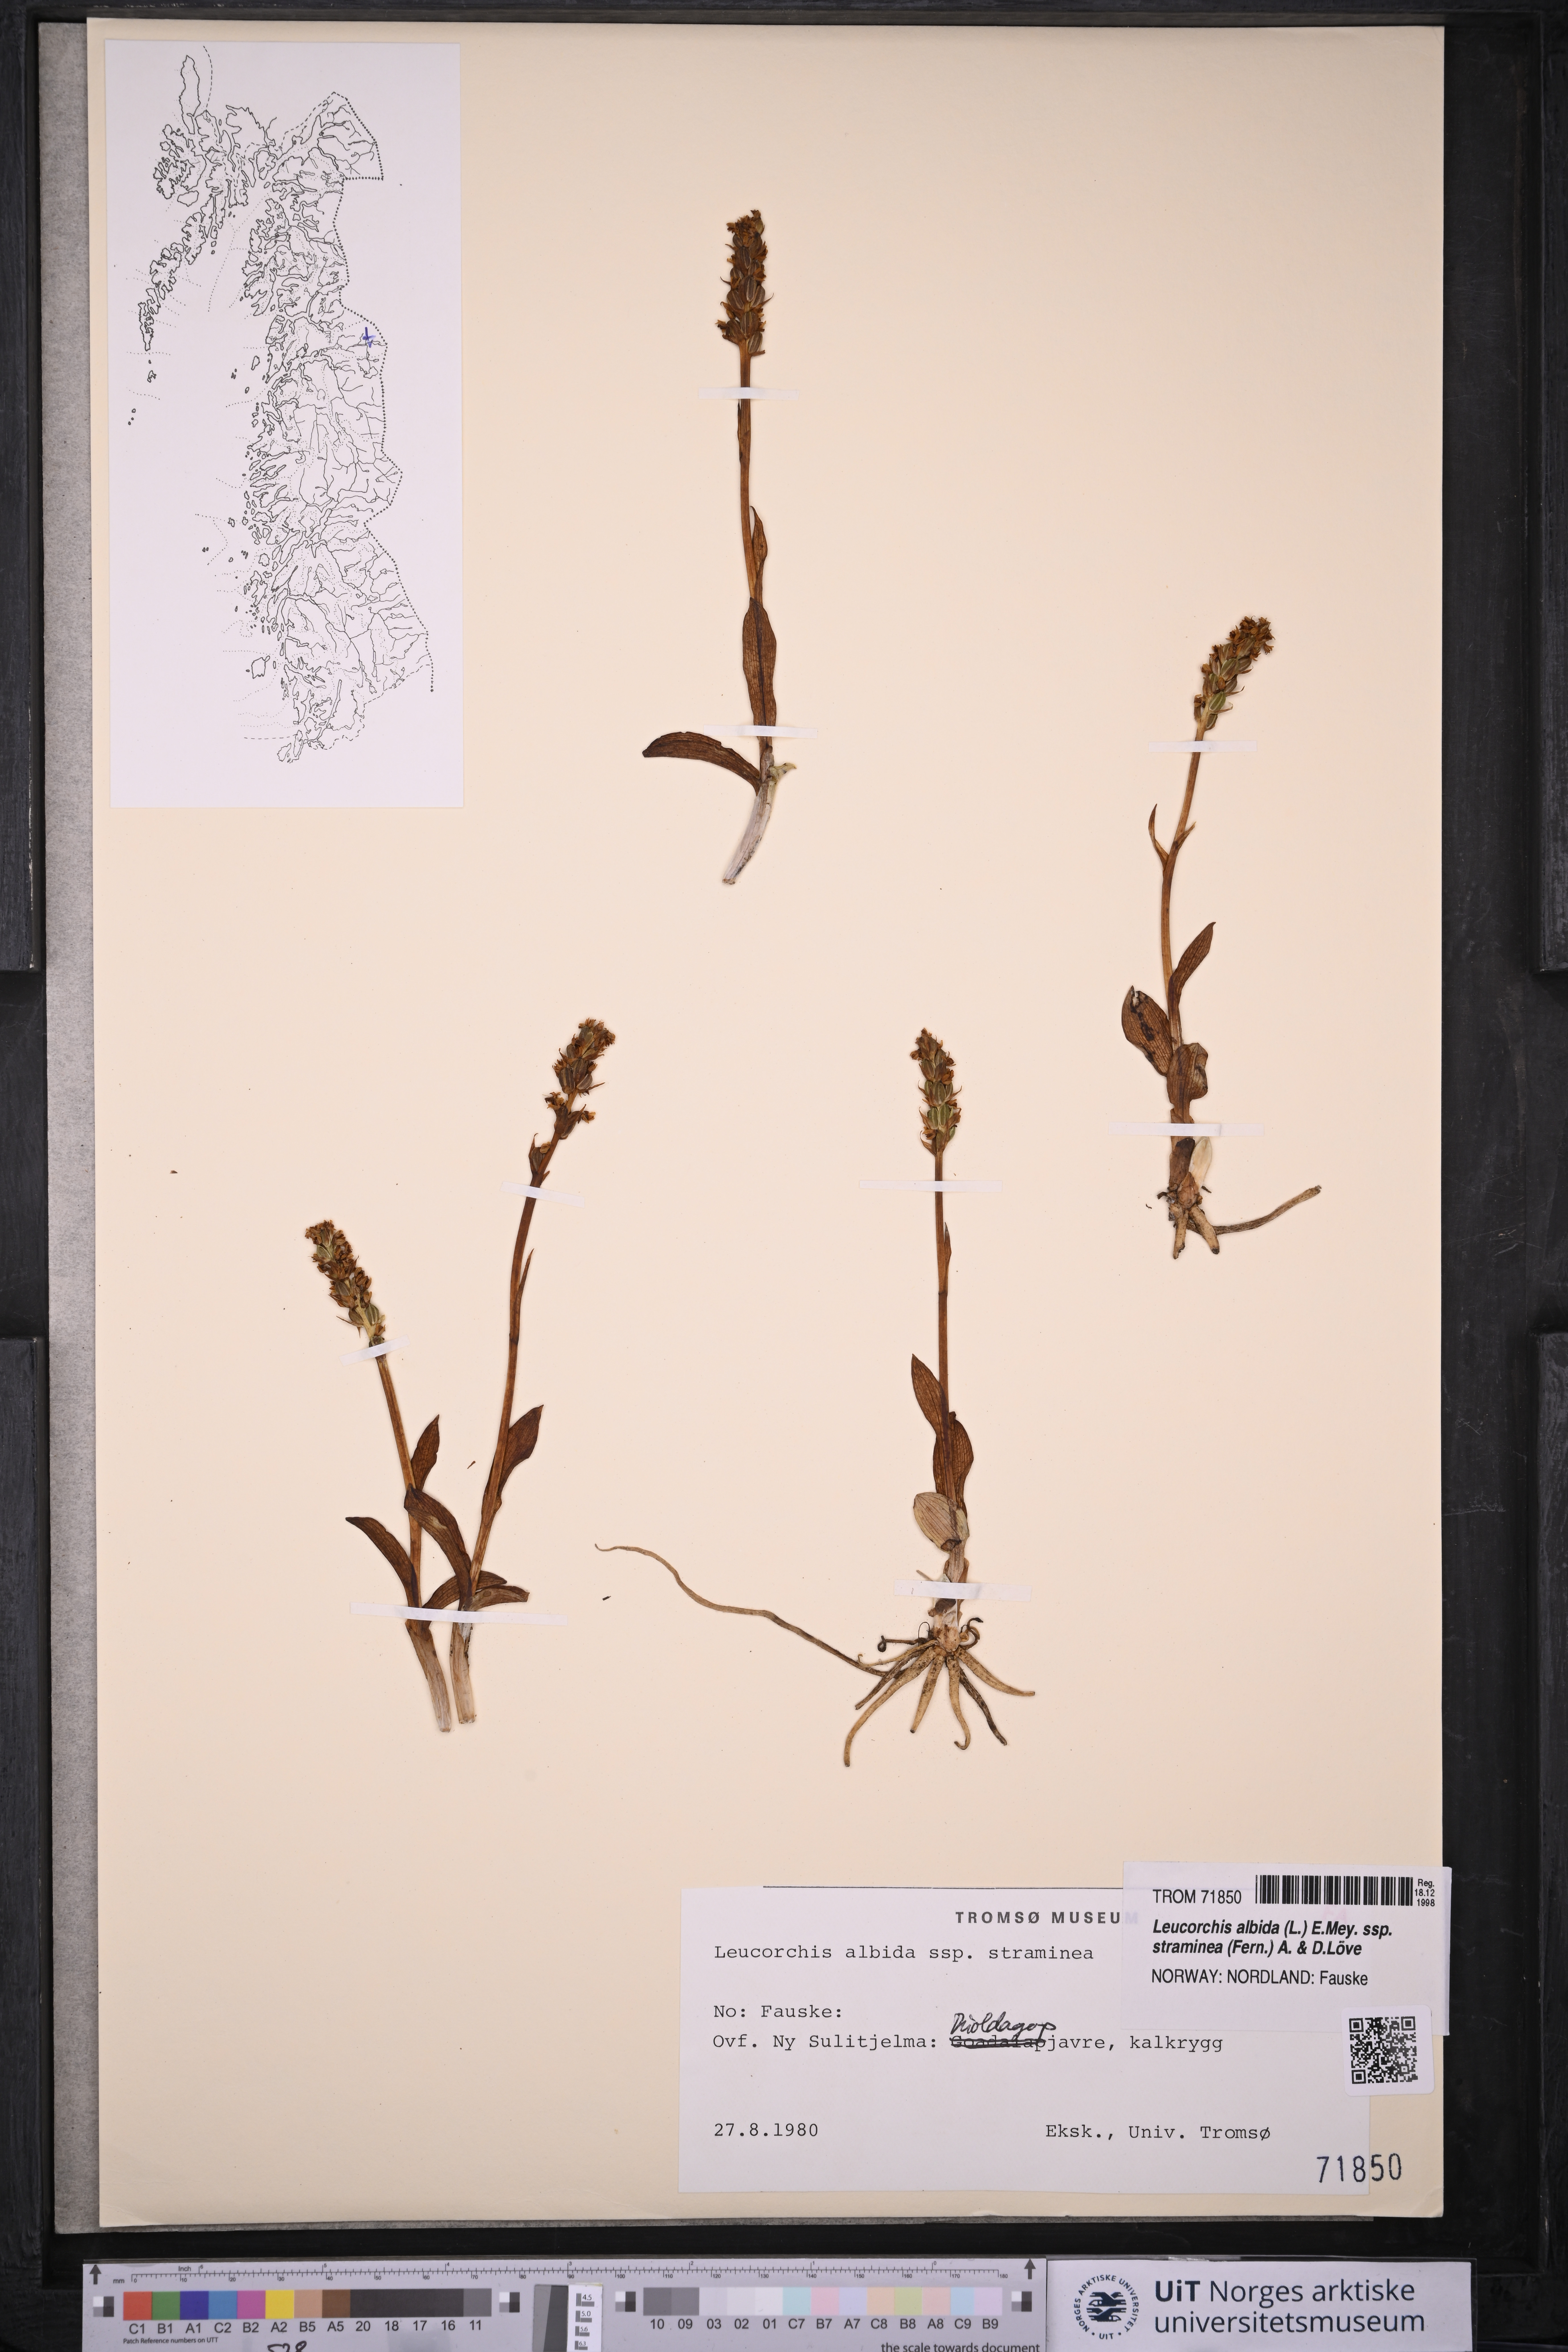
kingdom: Plantae
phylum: Tracheophyta
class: Liliopsida
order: Asparagales
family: Orchidaceae
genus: Pseudorchis
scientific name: Pseudorchis straminea
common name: Vanilla-scented bog orchid
